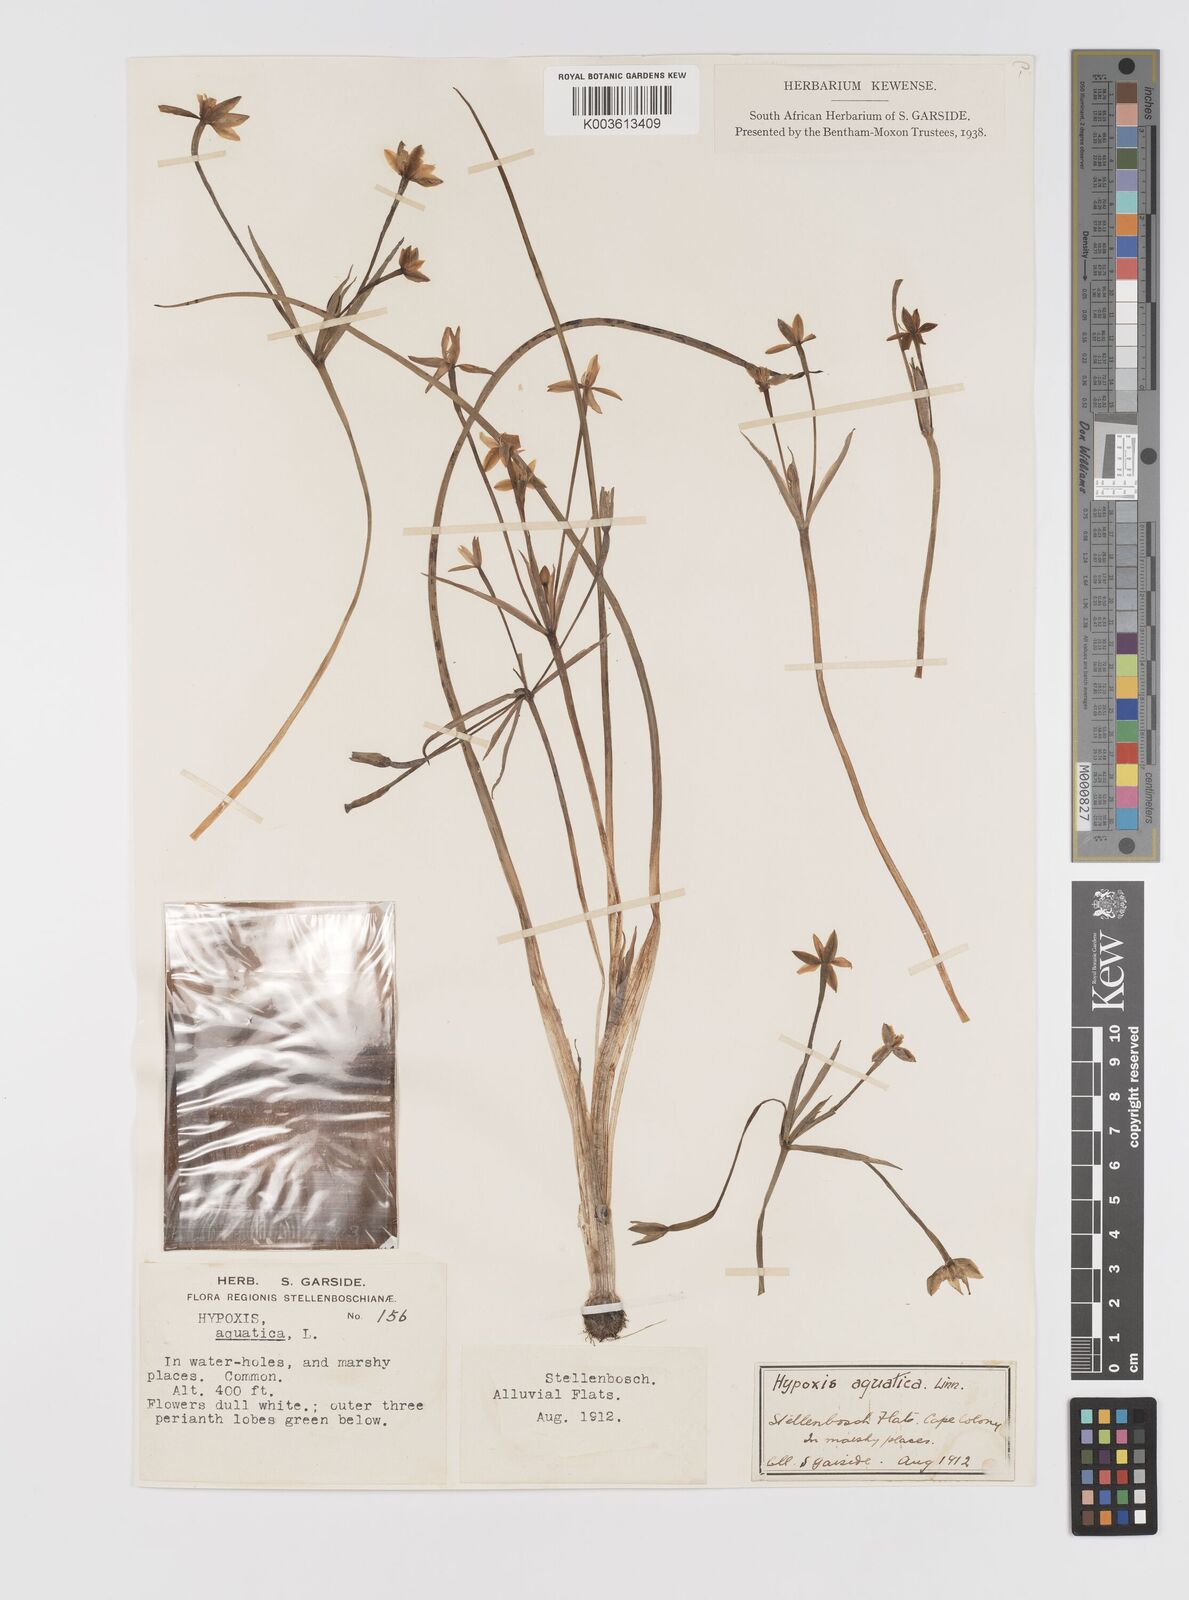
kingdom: Plantae
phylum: Tracheophyta
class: Liliopsida
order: Asparagales
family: Hypoxidaceae
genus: Pauridia
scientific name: Pauridia aquatica
